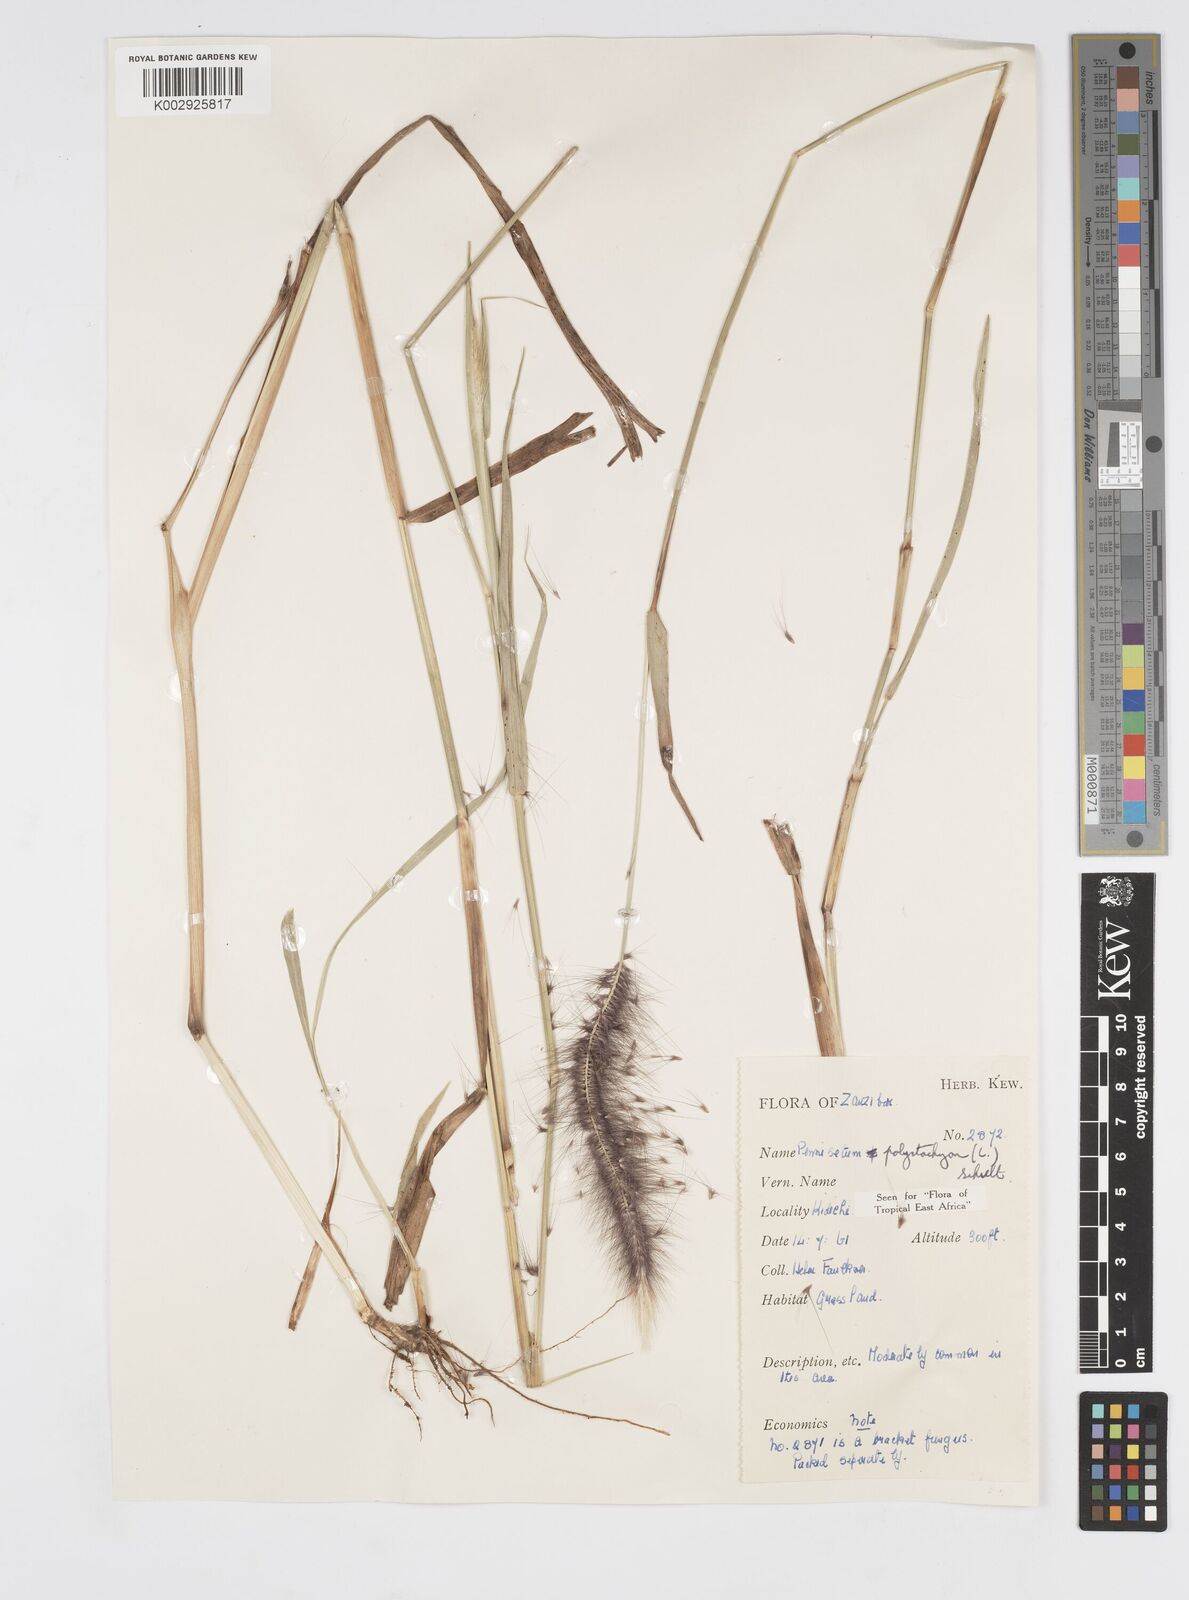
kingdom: Plantae
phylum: Tracheophyta
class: Liliopsida
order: Poales
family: Poaceae
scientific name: Poaceae
